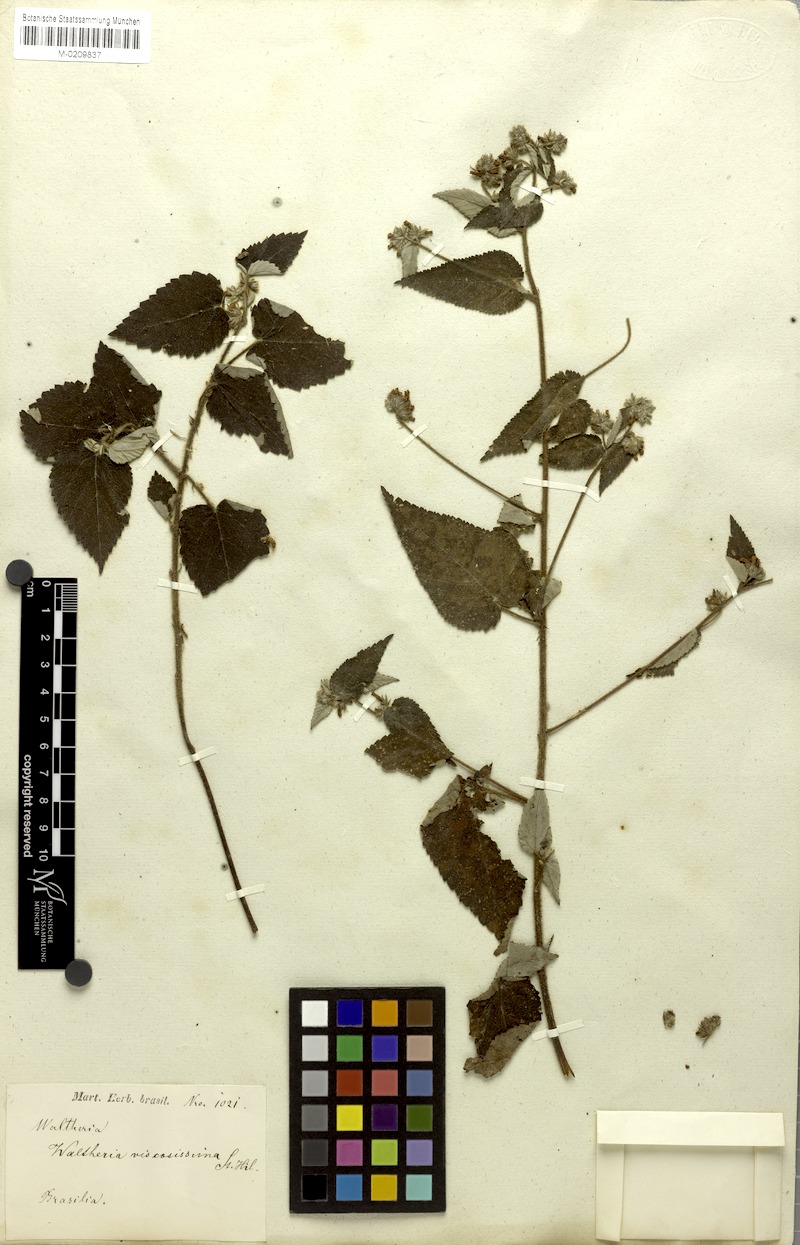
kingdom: Plantae
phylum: Tracheophyta
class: Magnoliopsida
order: Malvales
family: Malvaceae
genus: Waltheria
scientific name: Waltheria viscosissima
